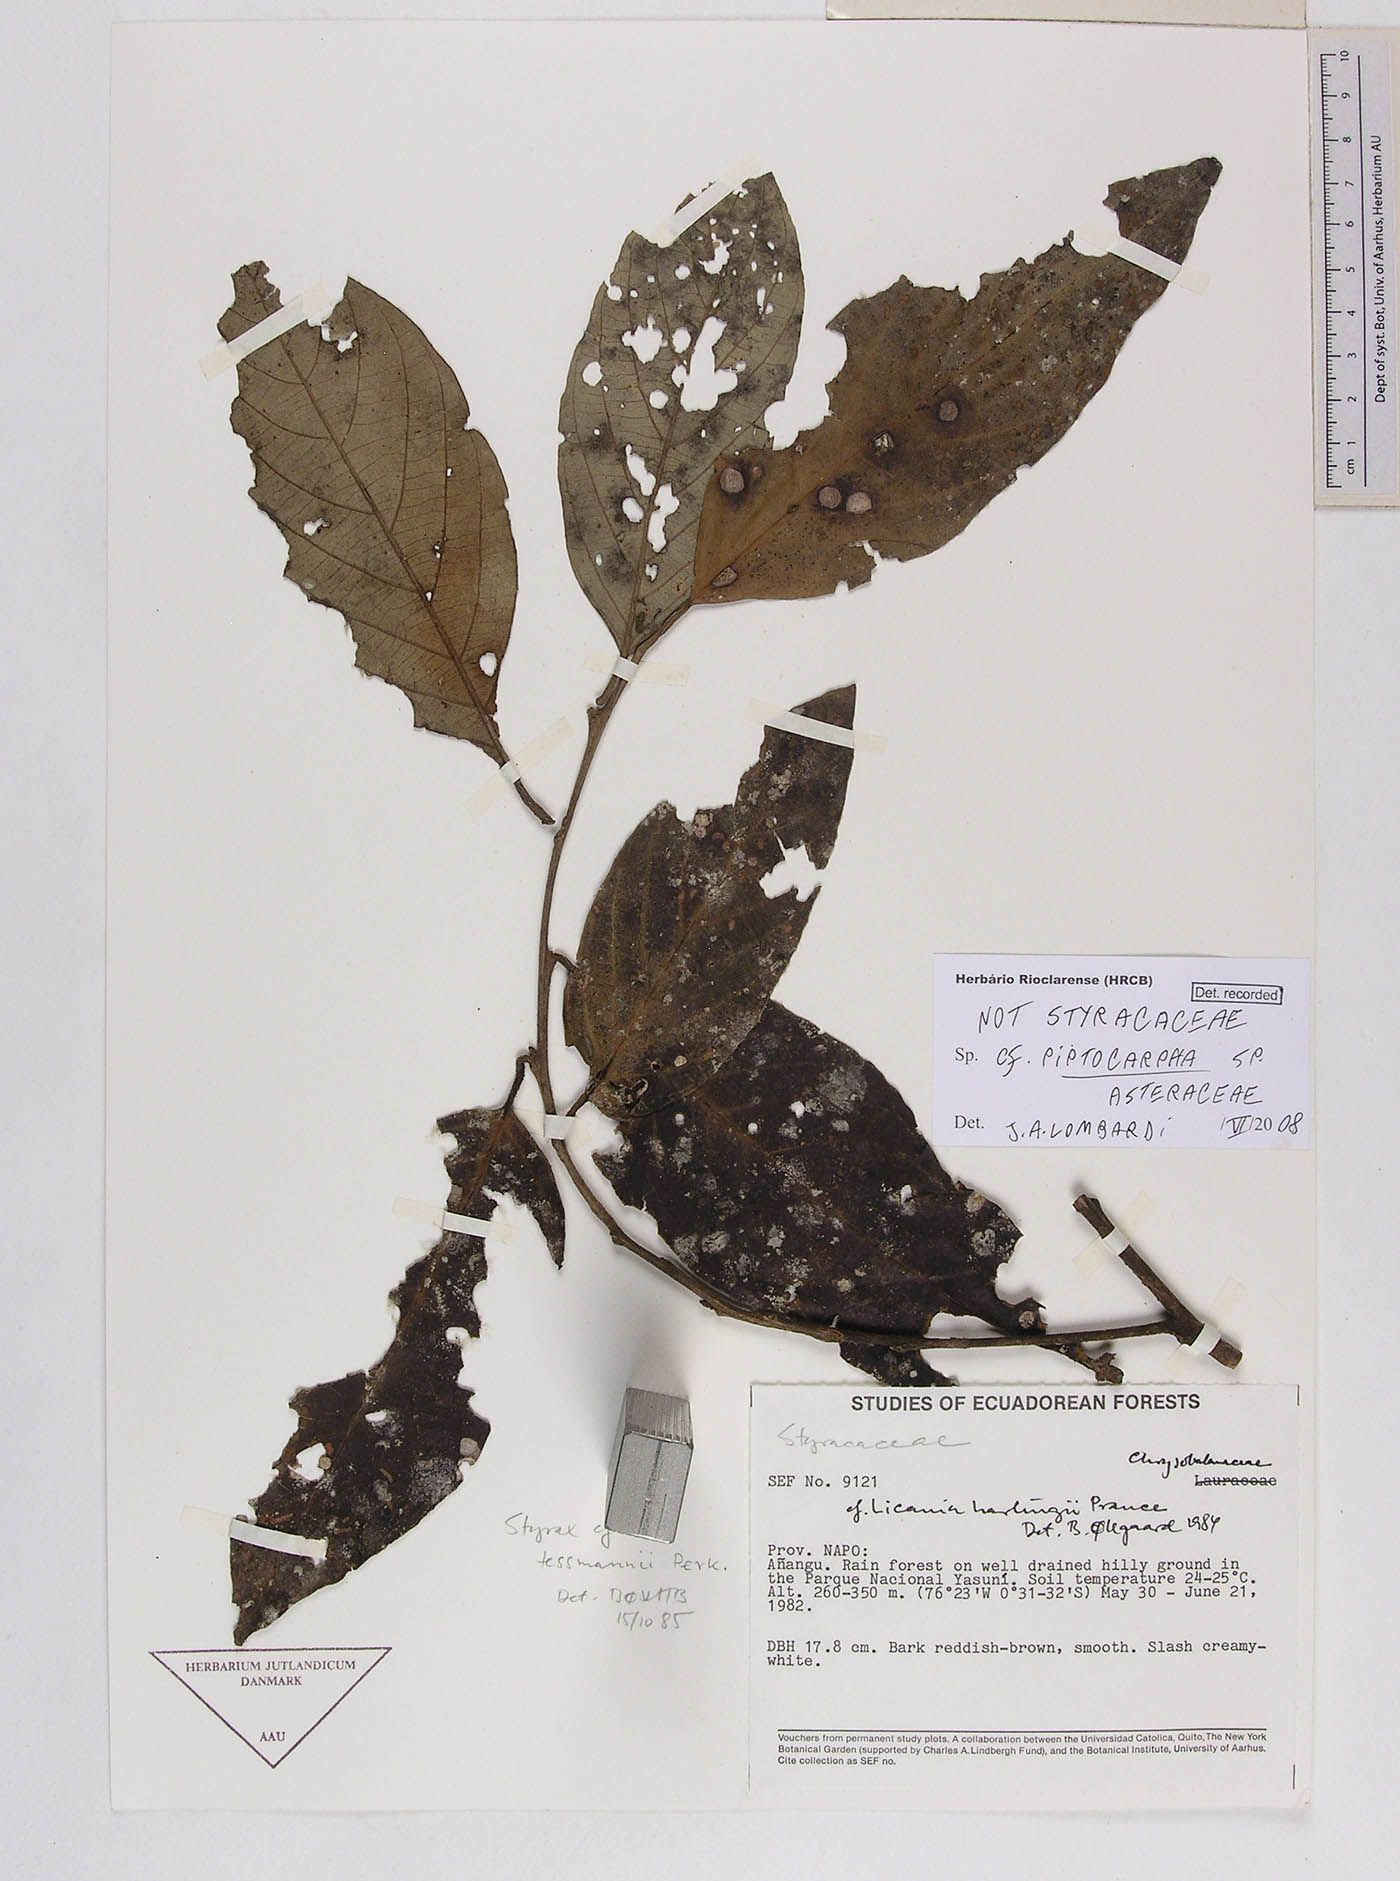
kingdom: Plantae
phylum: Tracheophyta
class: Magnoliopsida
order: Asterales
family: Asteraceae
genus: Piptocarpha
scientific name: Piptocarpha
